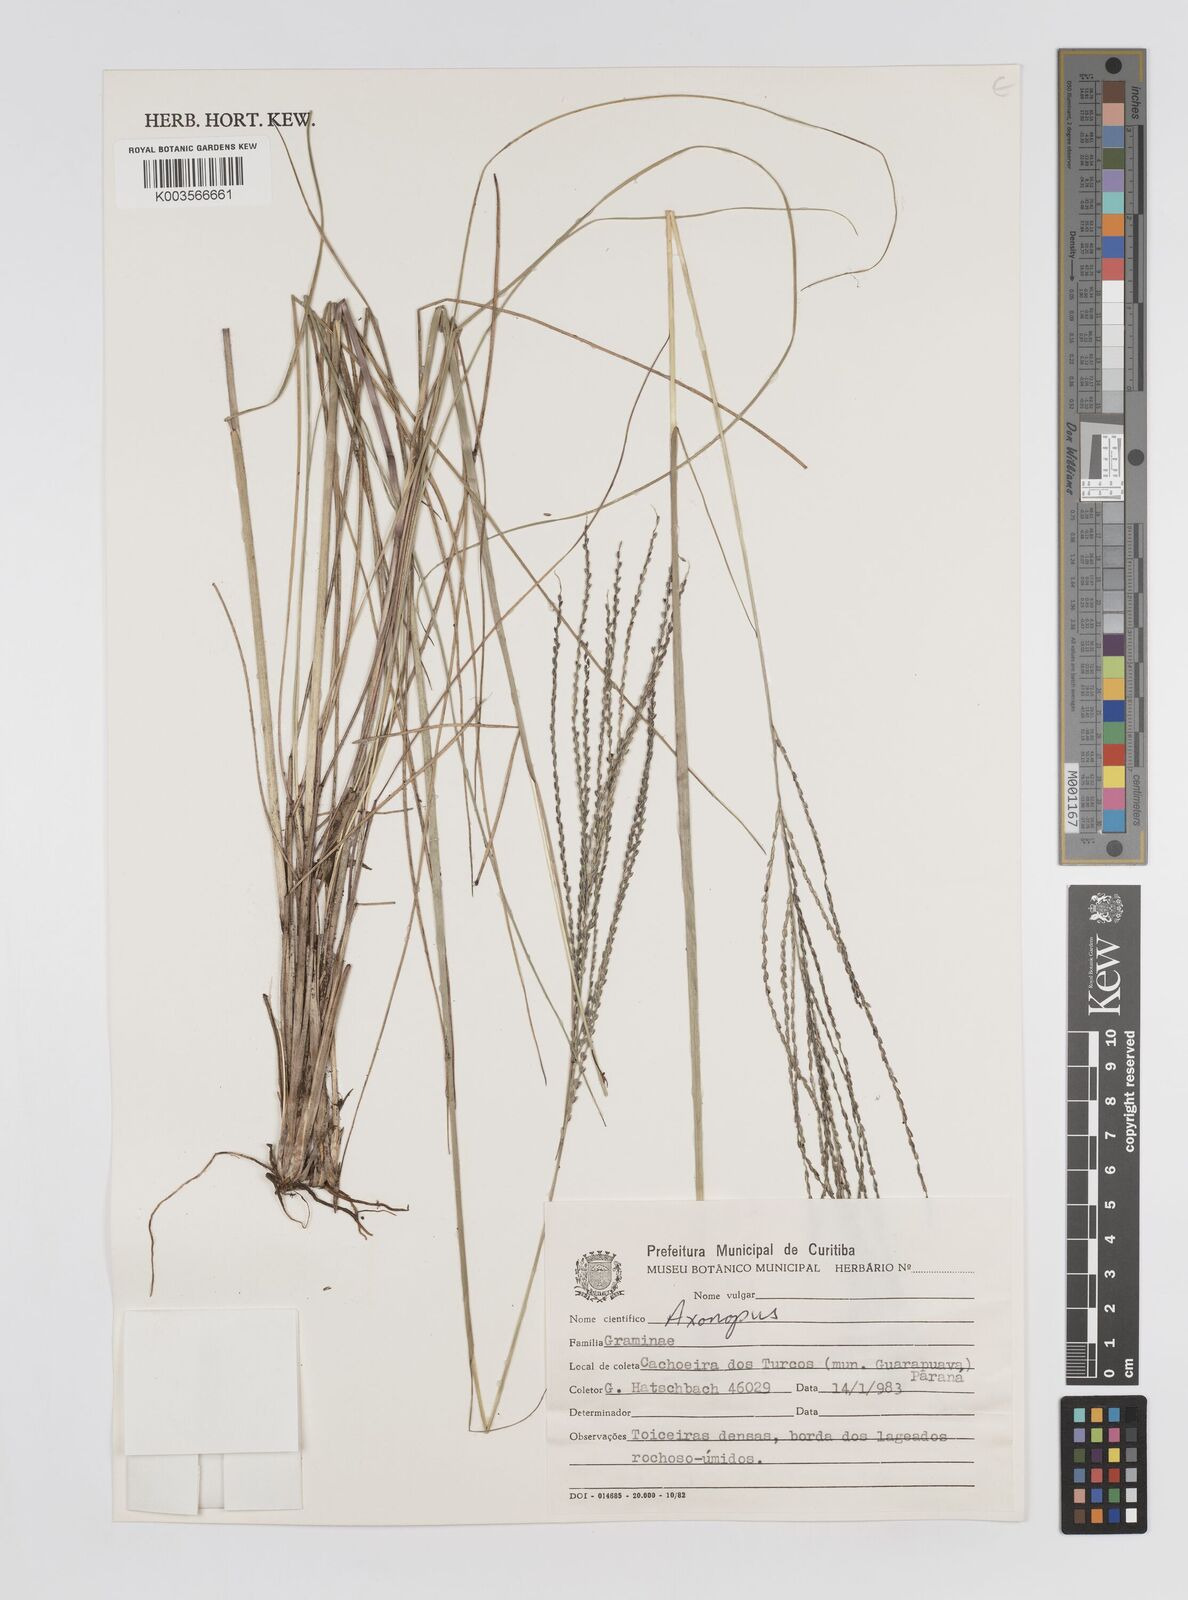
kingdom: Plantae
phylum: Tracheophyta
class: Liliopsida
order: Poales
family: Poaceae
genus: Axonopus
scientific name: Axonopus siccus
